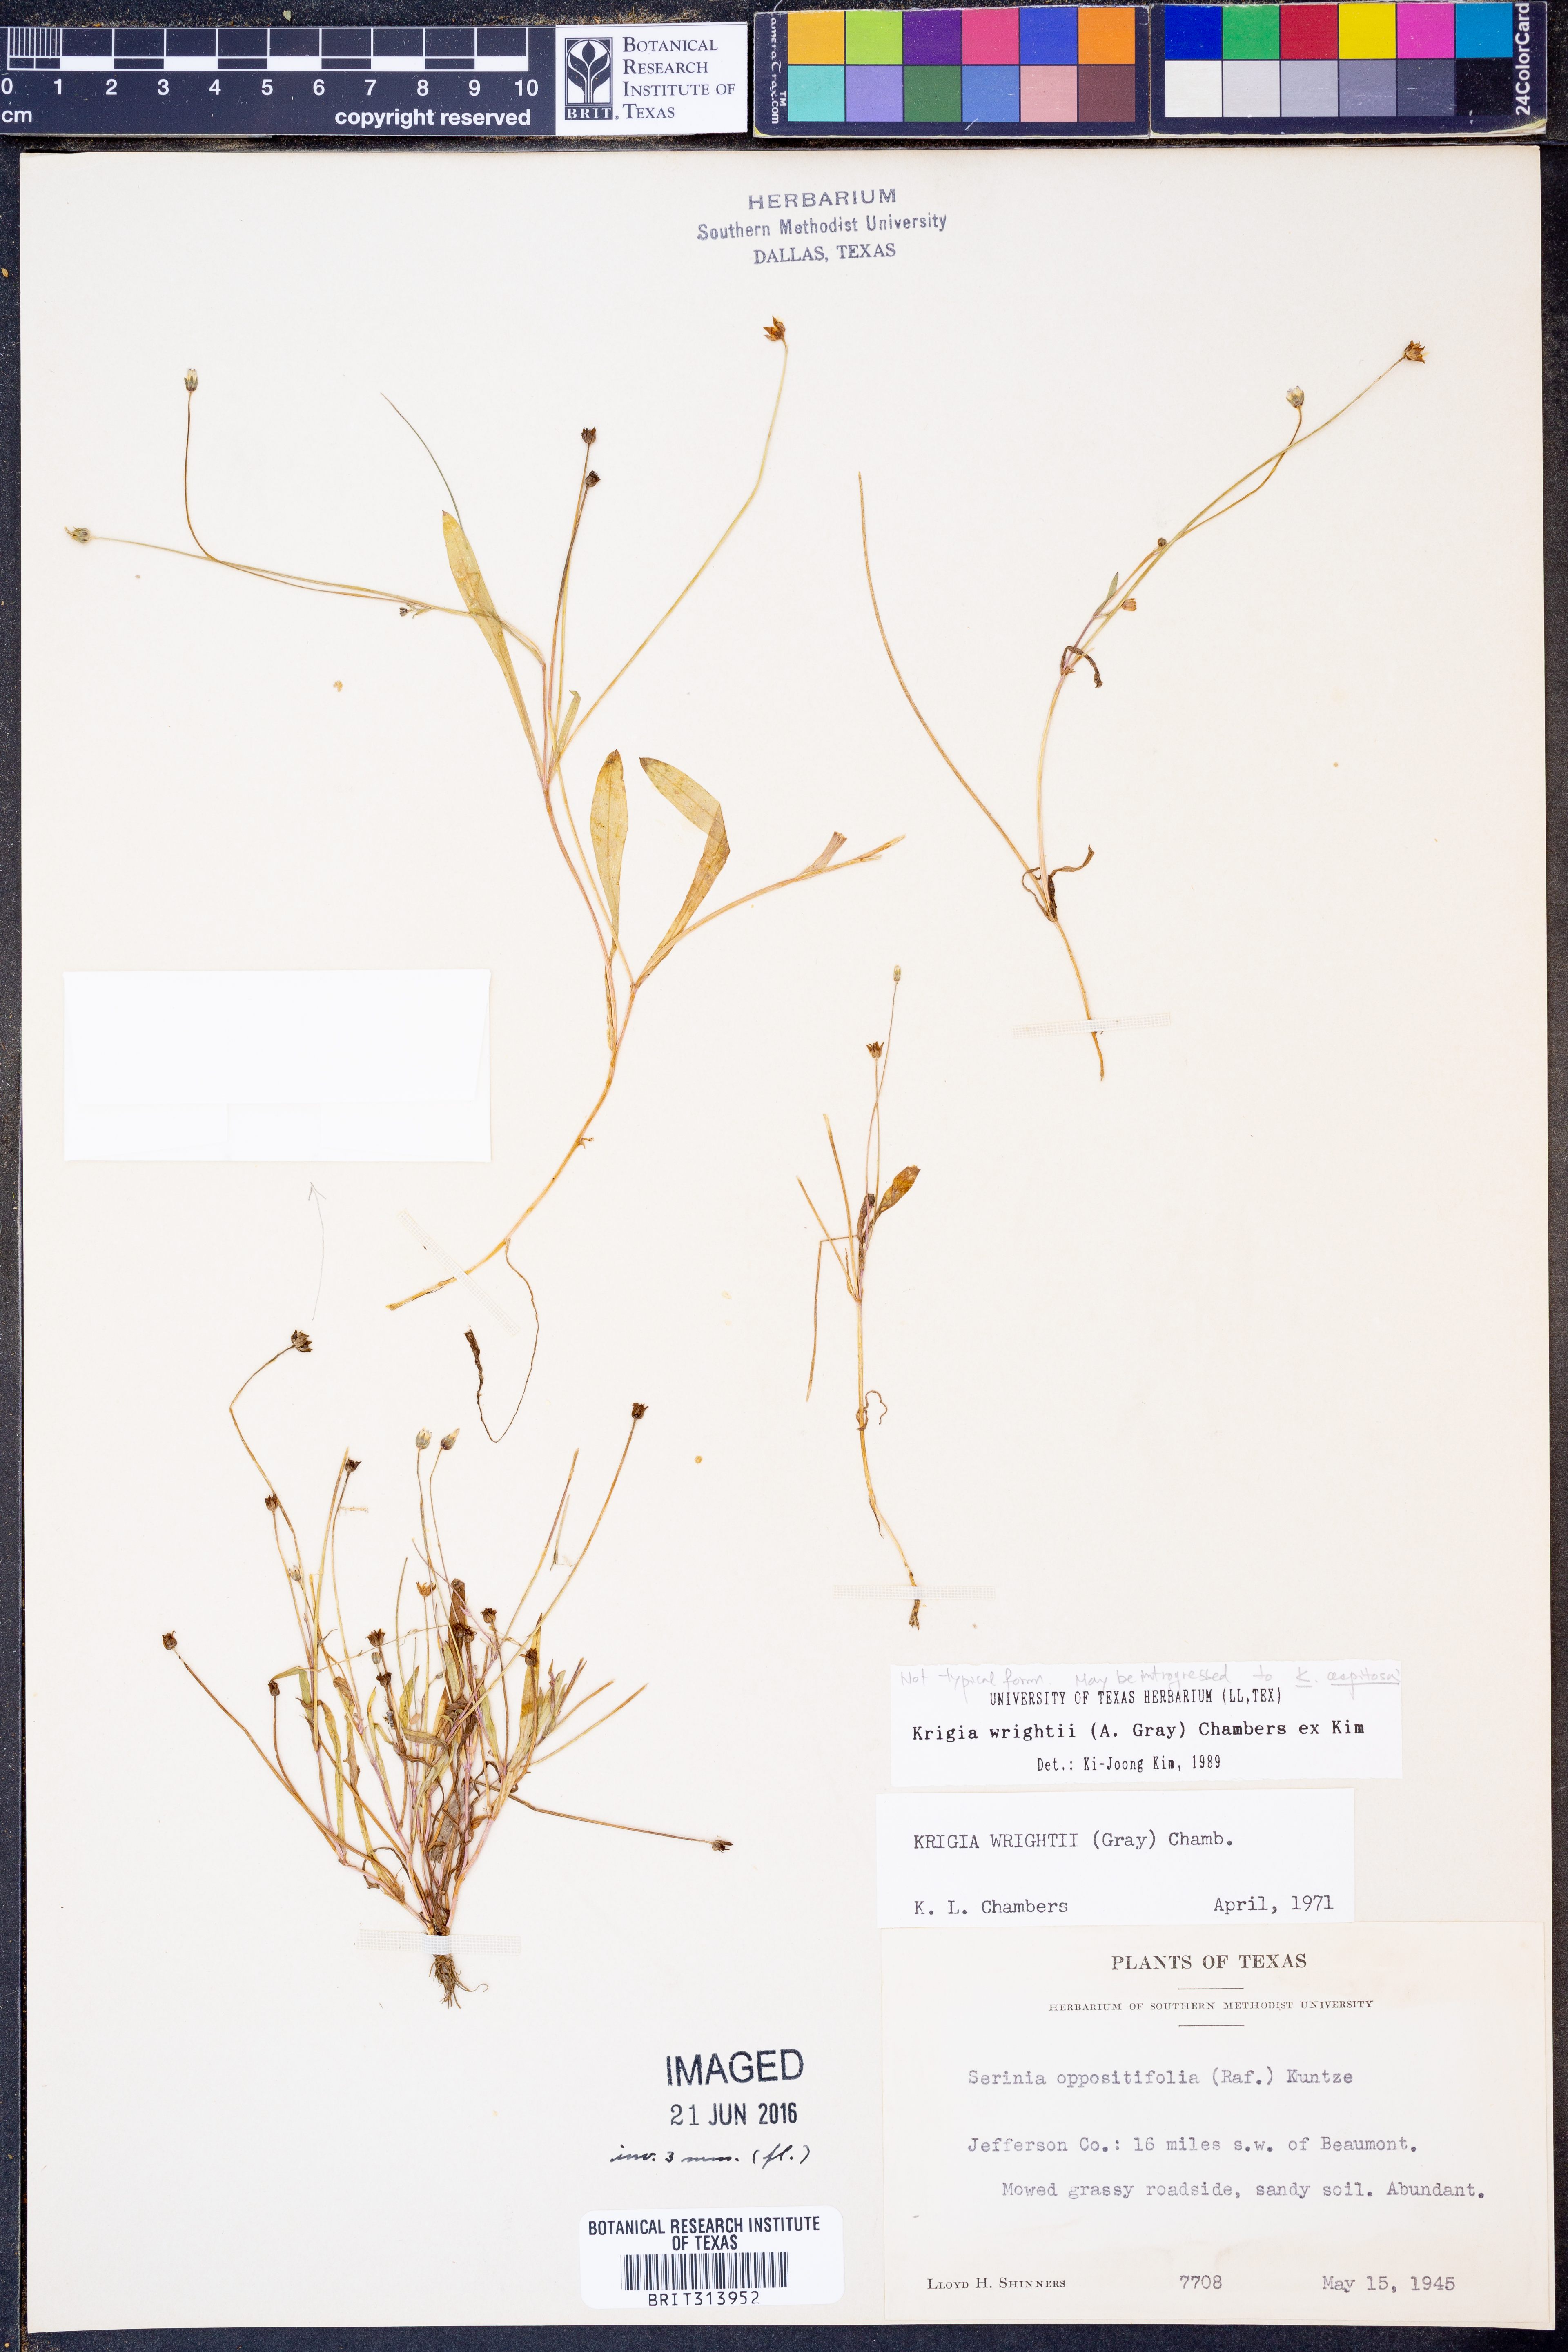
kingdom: Plantae
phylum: Tracheophyta
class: Magnoliopsida
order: Asterales
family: Asteraceae
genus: Krigia
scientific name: Krigia wrightii
